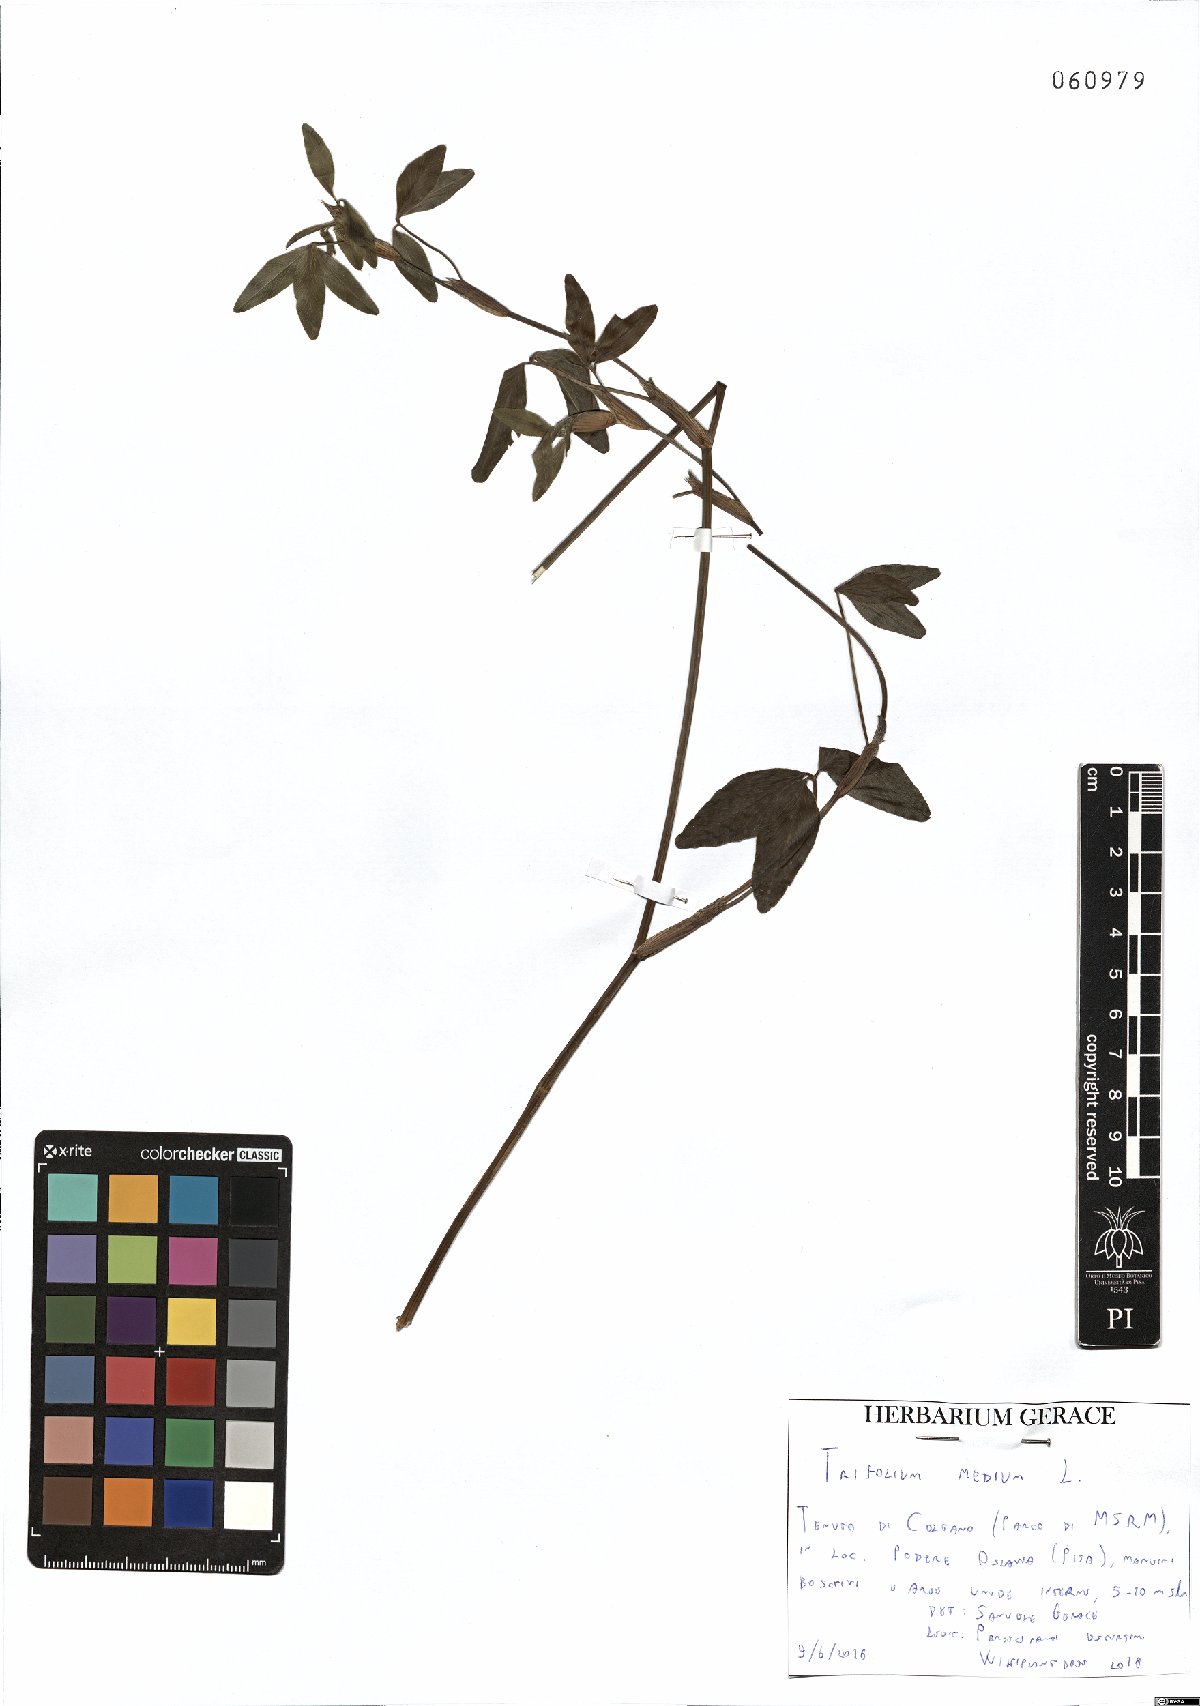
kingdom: Plantae
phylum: Tracheophyta
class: Magnoliopsida
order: Fabales
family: Fabaceae
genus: Trifolium
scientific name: Trifolium medium
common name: Zigzag clover
